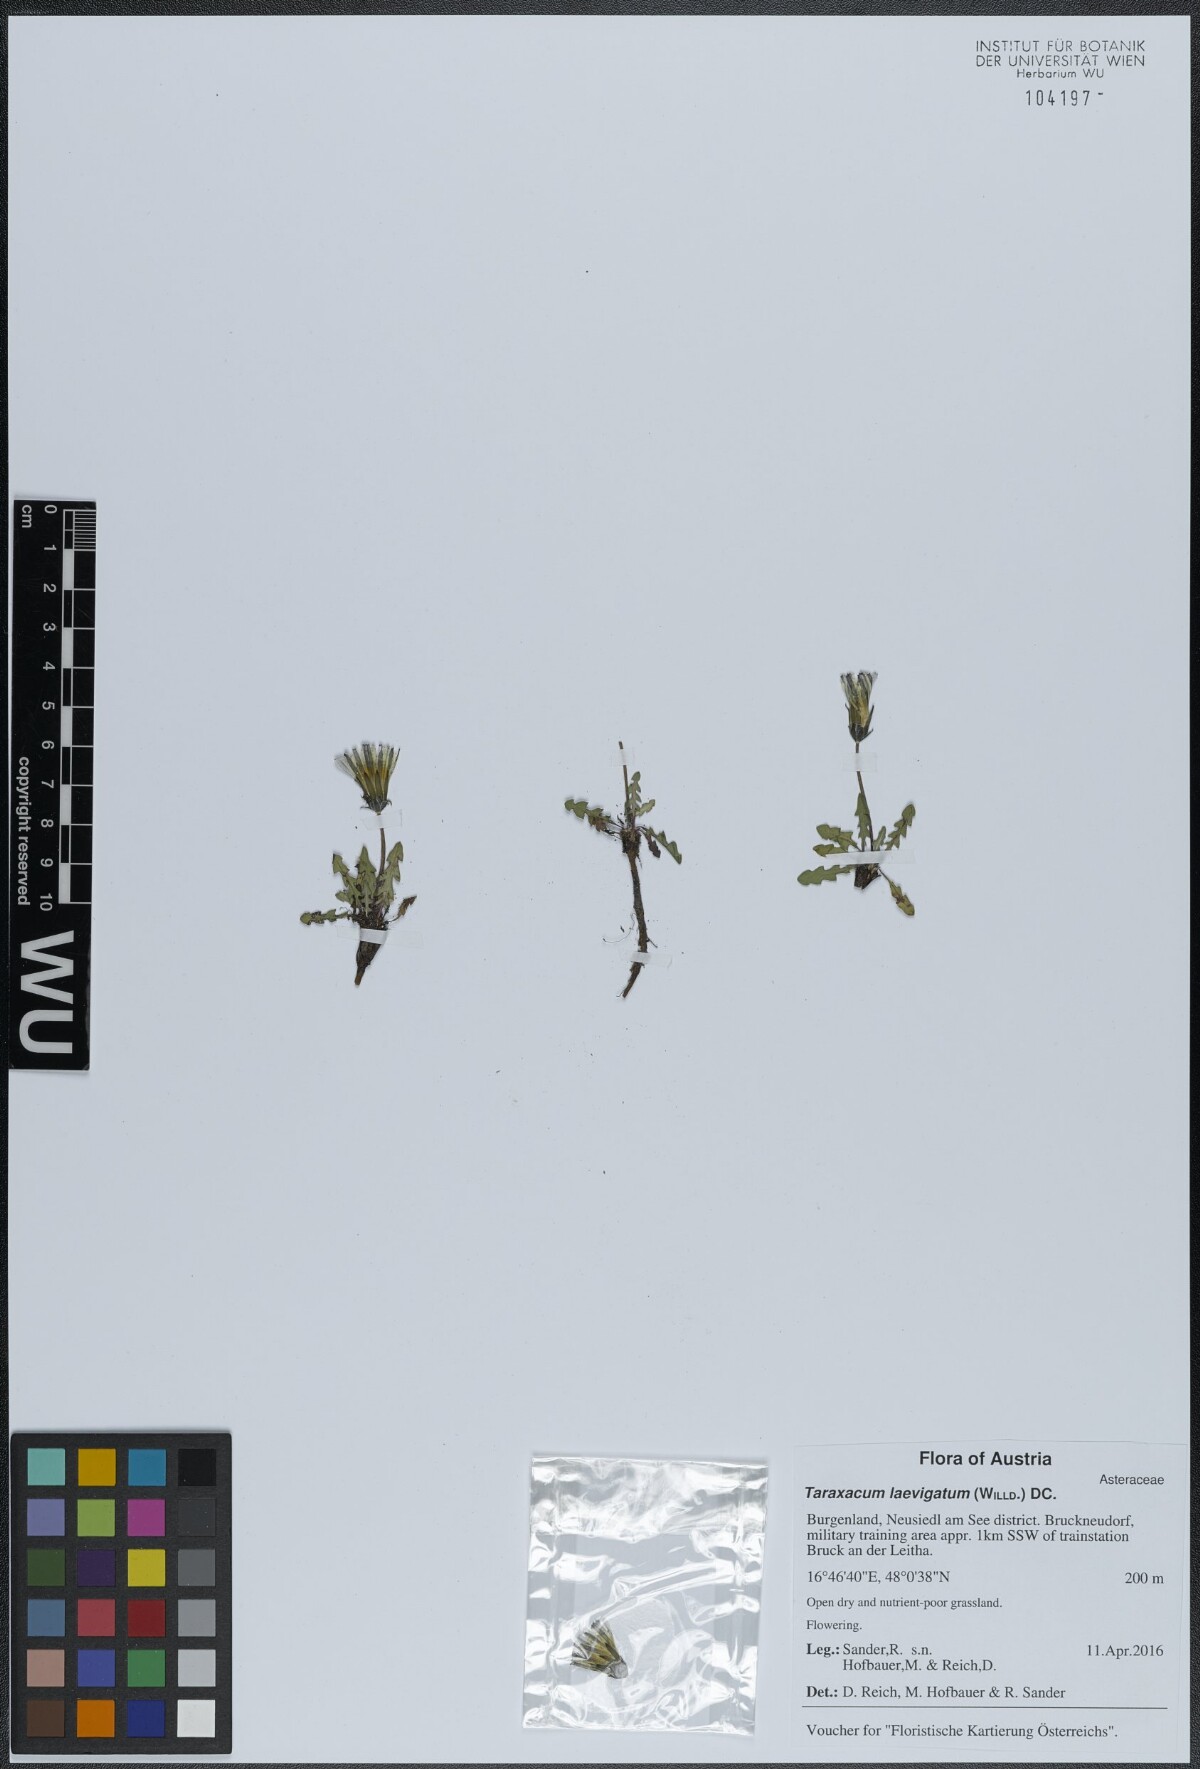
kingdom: Plantae
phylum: Tracheophyta
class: Magnoliopsida
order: Asterales
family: Asteraceae
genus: Taraxacum
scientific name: Taraxacum erythrospermum
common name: Rock dandelion
